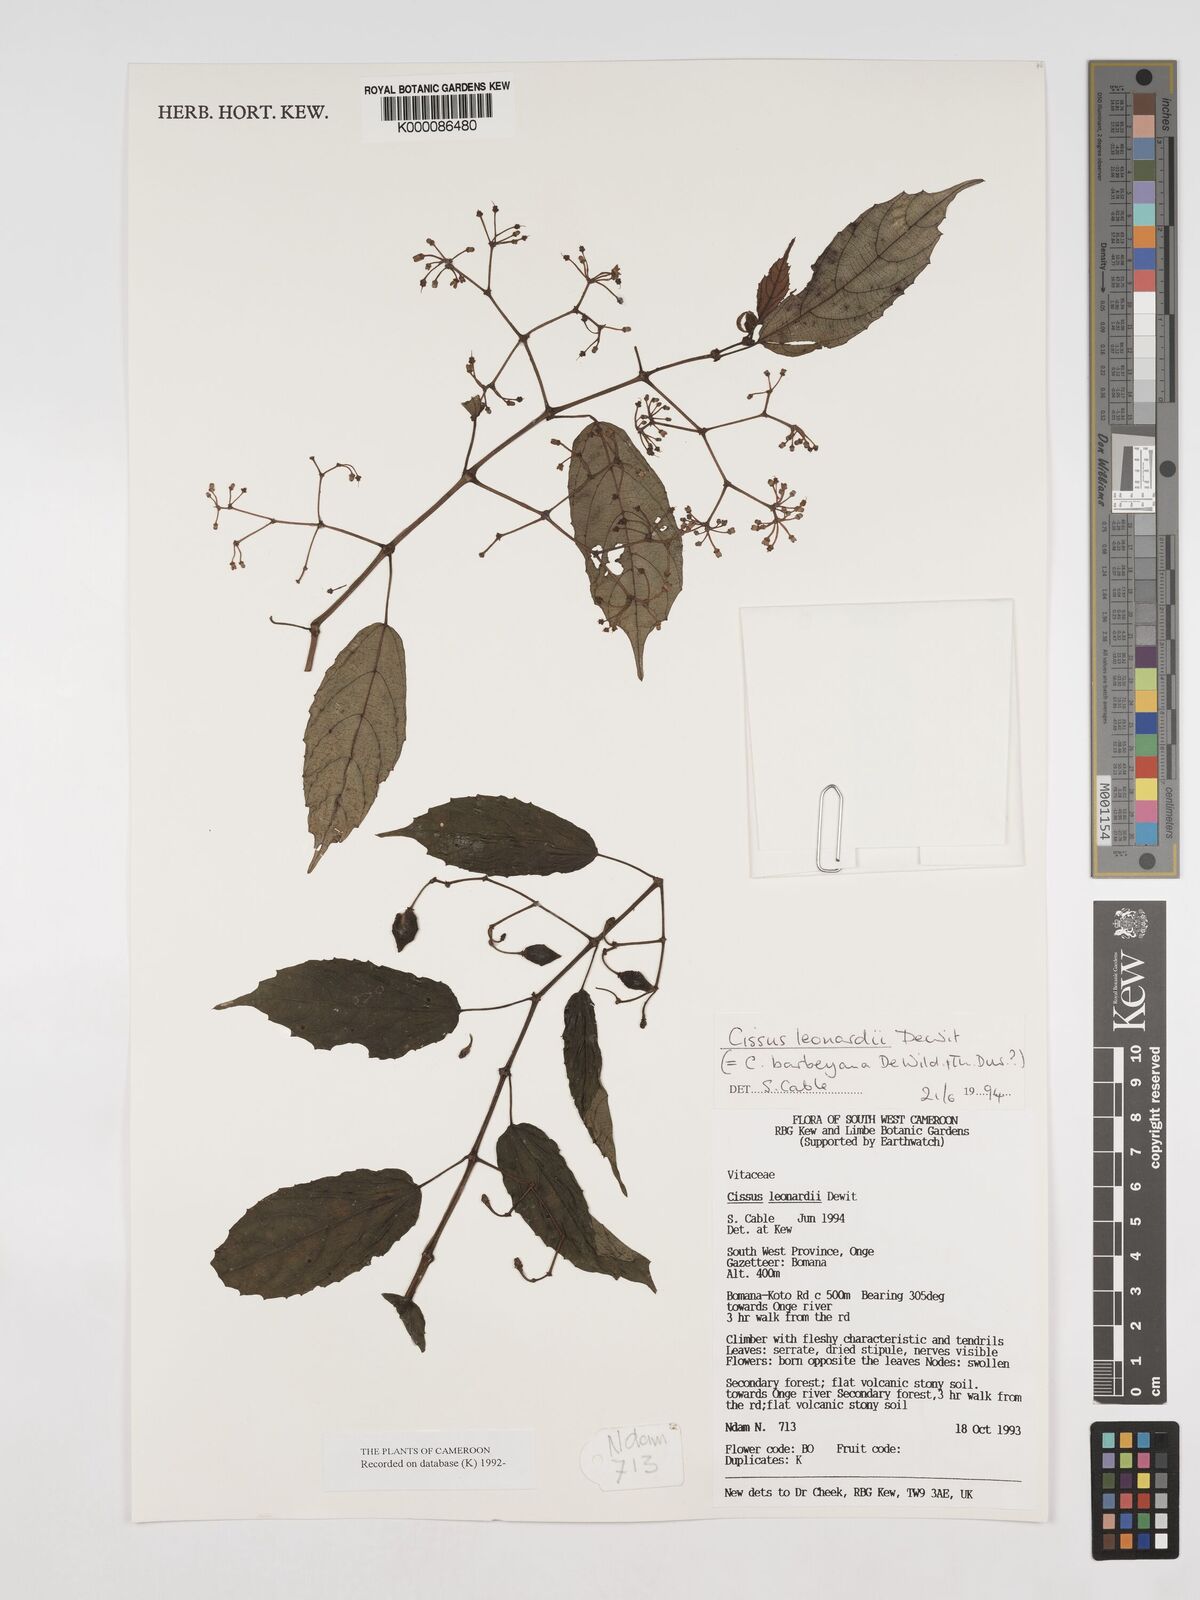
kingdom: Plantae
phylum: Tracheophyta
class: Magnoliopsida
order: Vitales
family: Vitaceae
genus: Cissus
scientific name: Cissus leonardii
